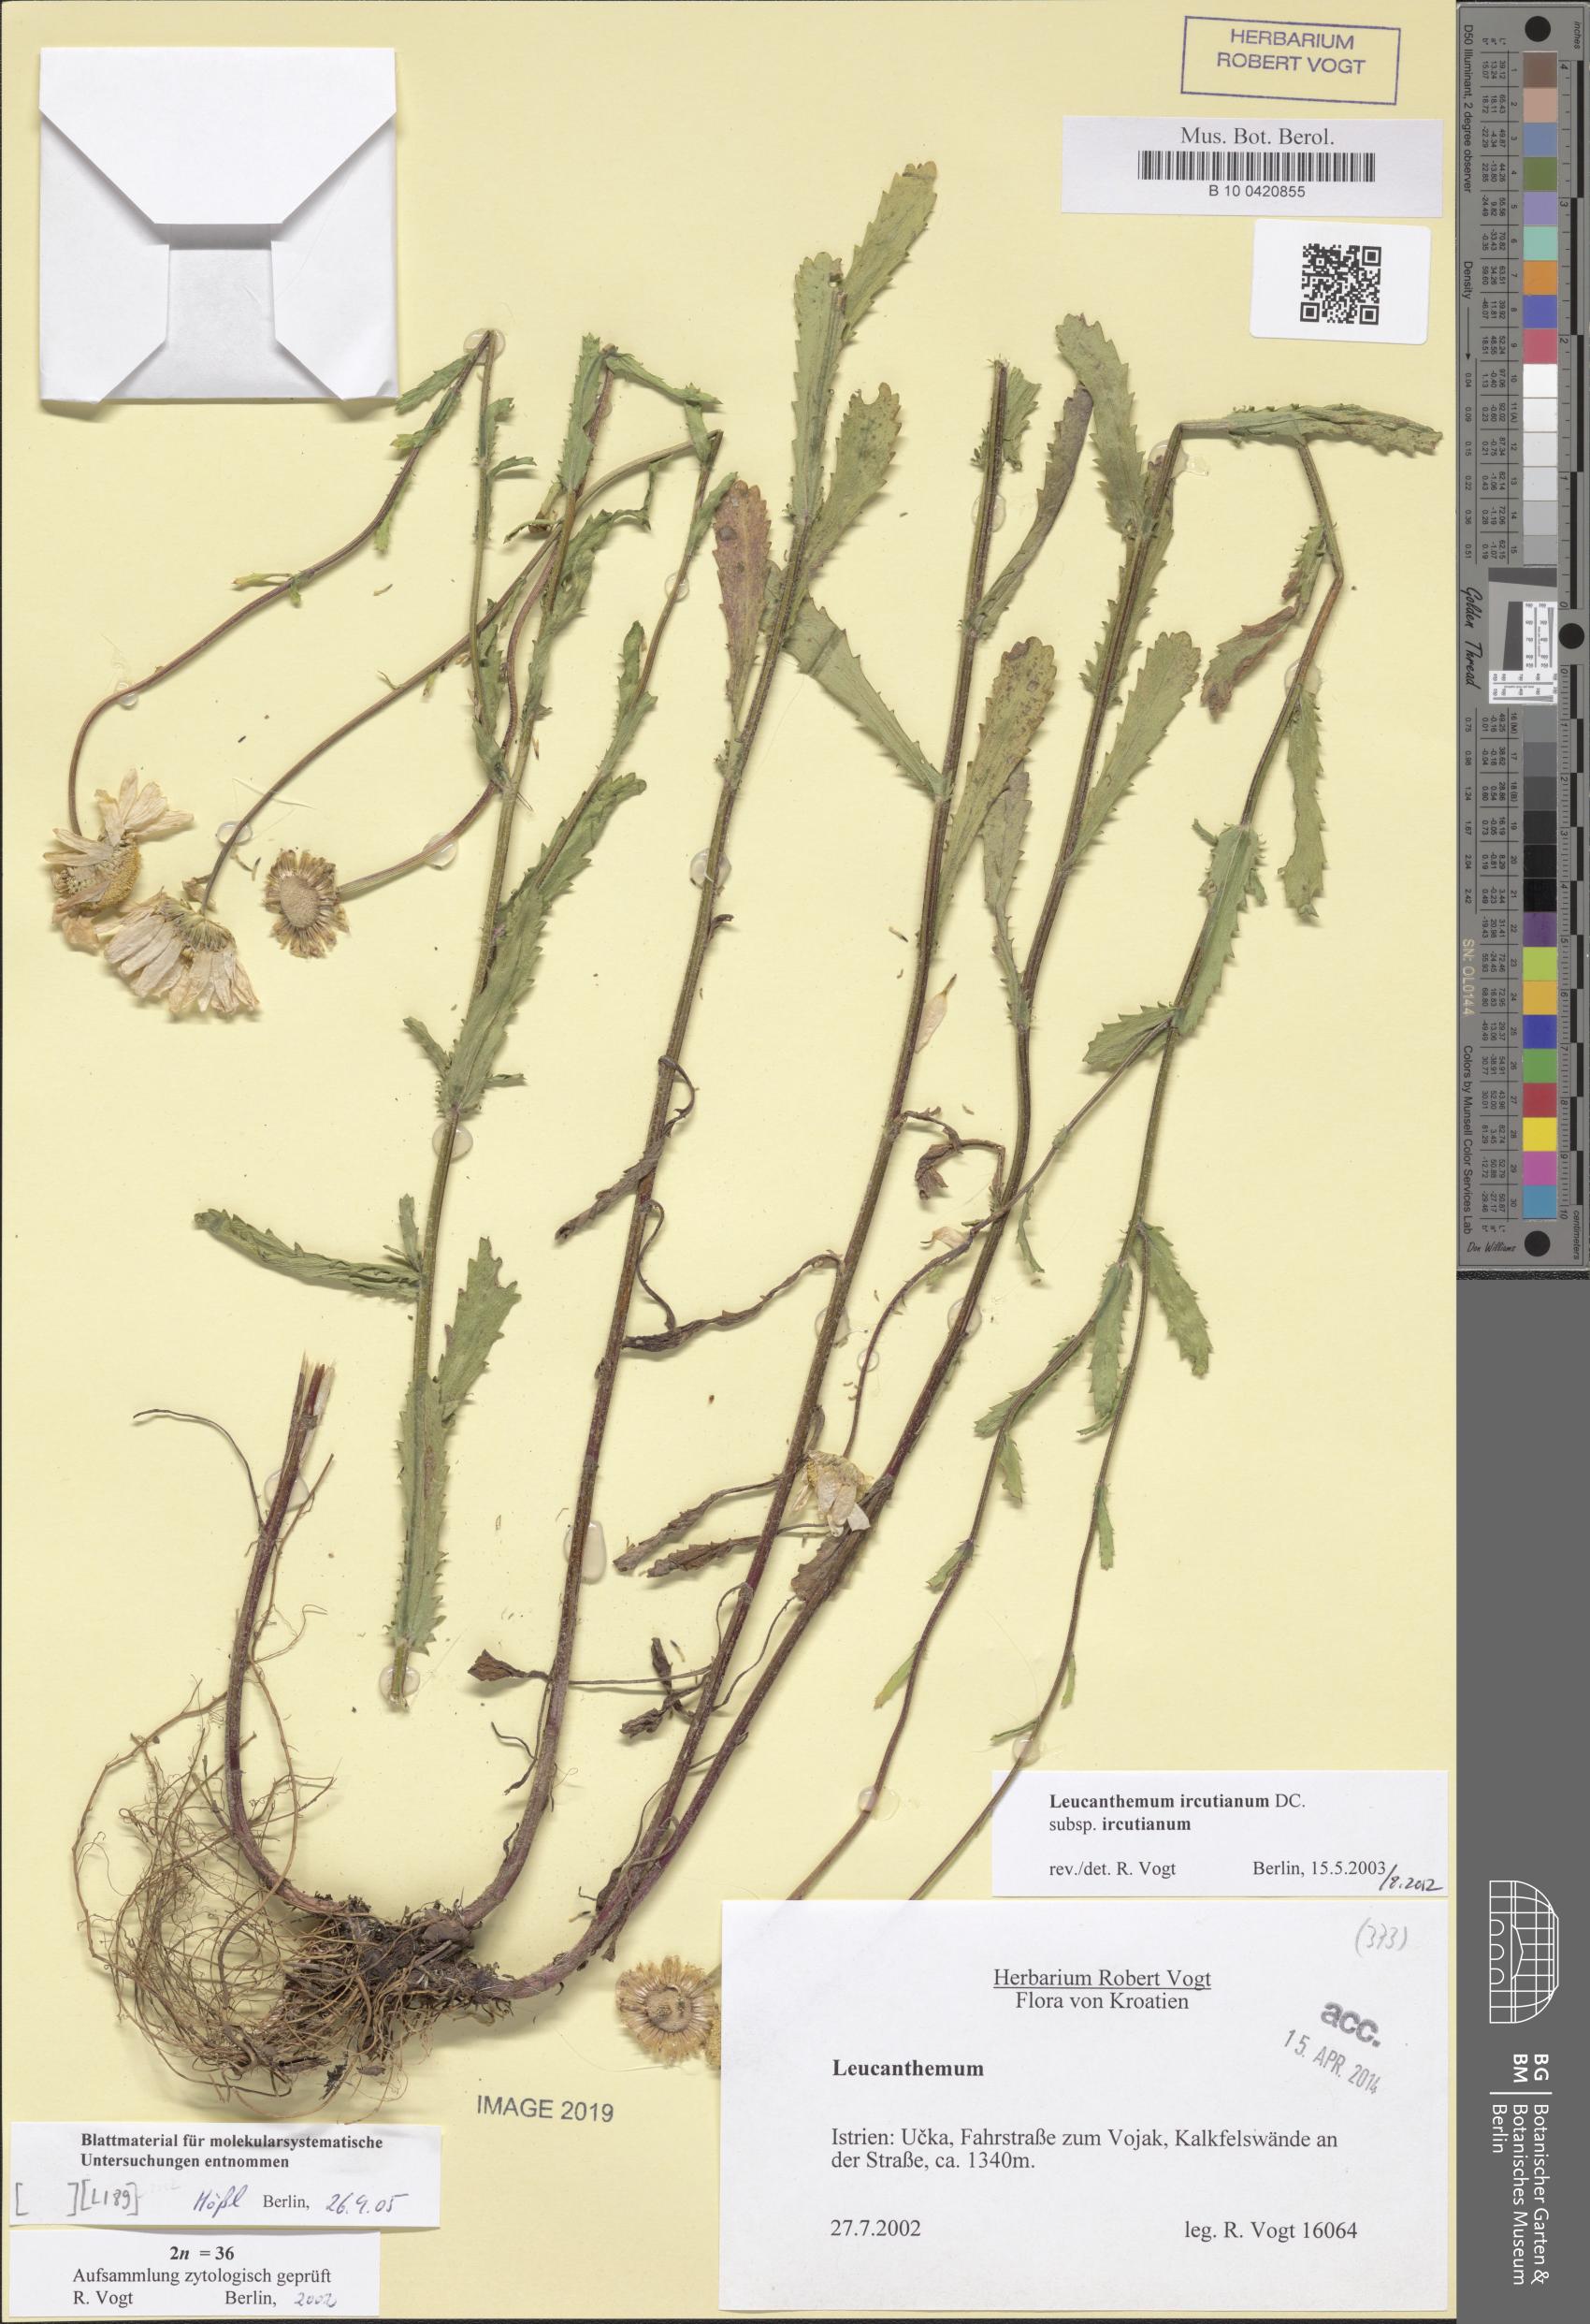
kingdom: Plantae
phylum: Tracheophyta
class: Magnoliopsida
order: Asterales
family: Asteraceae
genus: Leucanthemum
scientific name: Leucanthemum ircutianum
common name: Daisy
